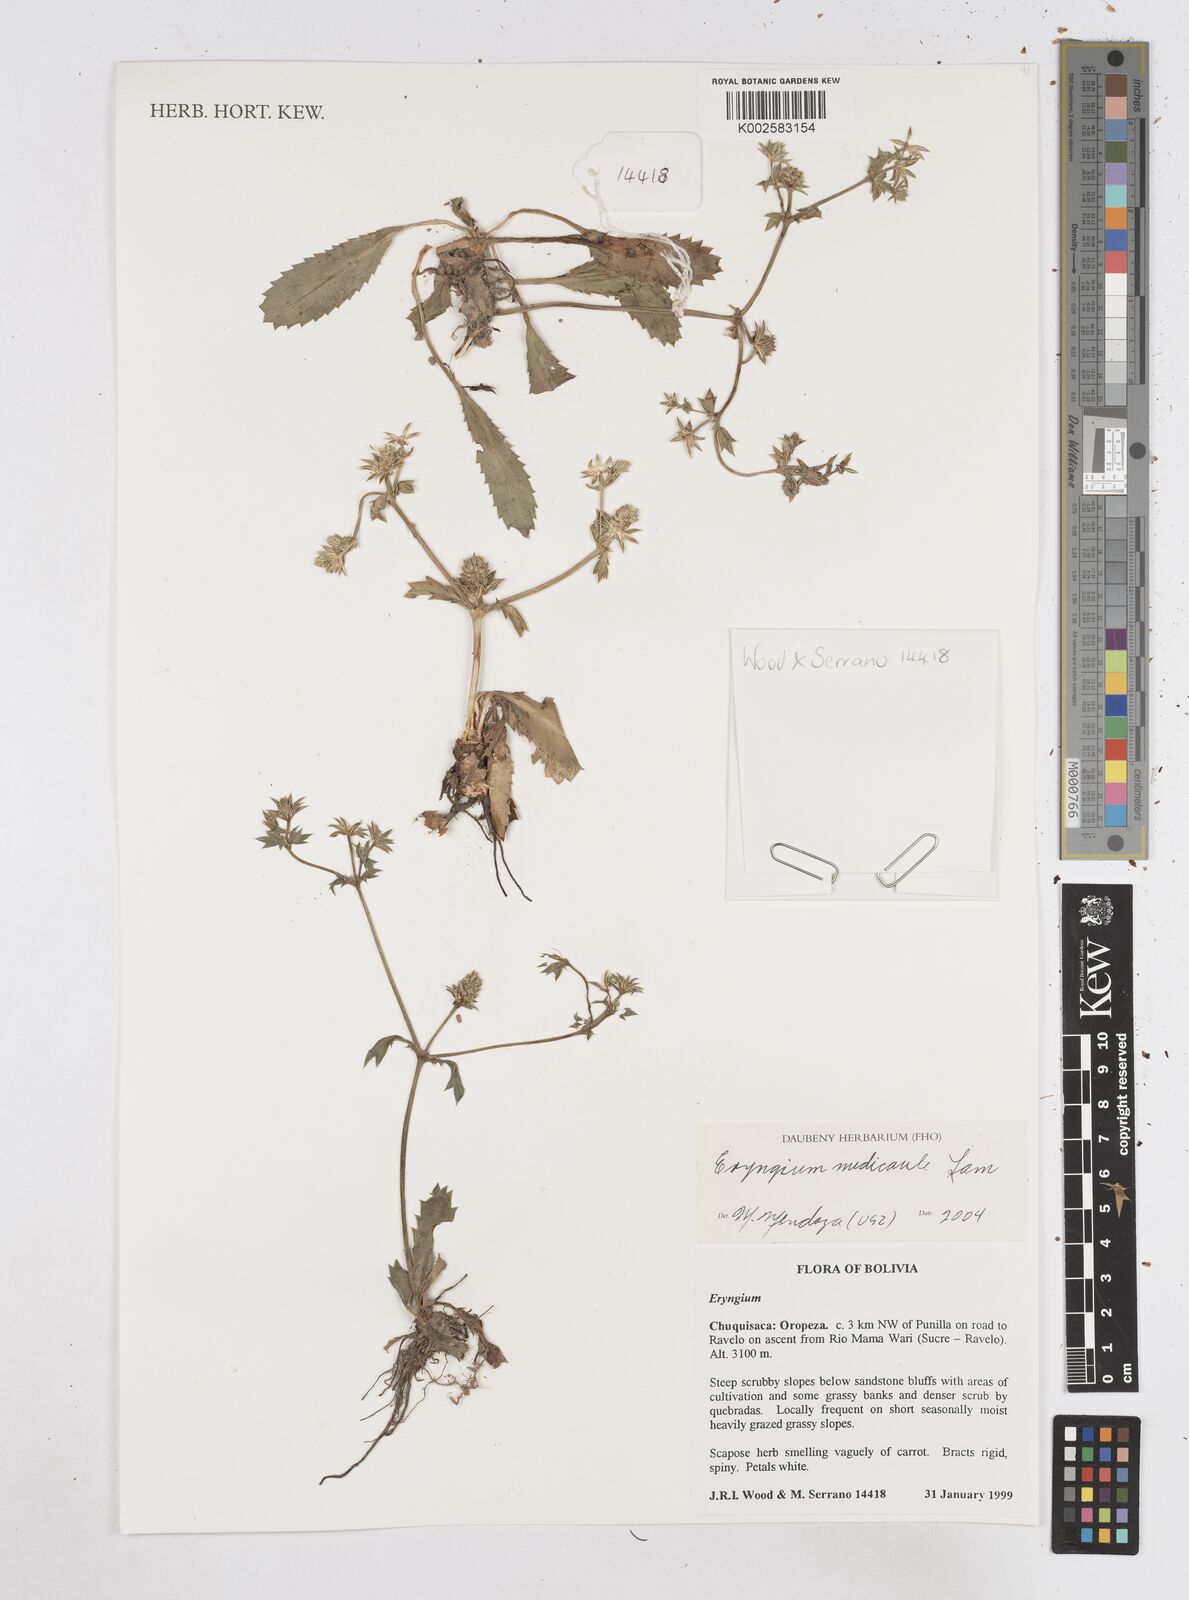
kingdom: Plantae
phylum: Tracheophyta
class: Magnoliopsida
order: Apiales
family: Apiaceae
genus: Eryngium
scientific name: Eryngium nudicaule
